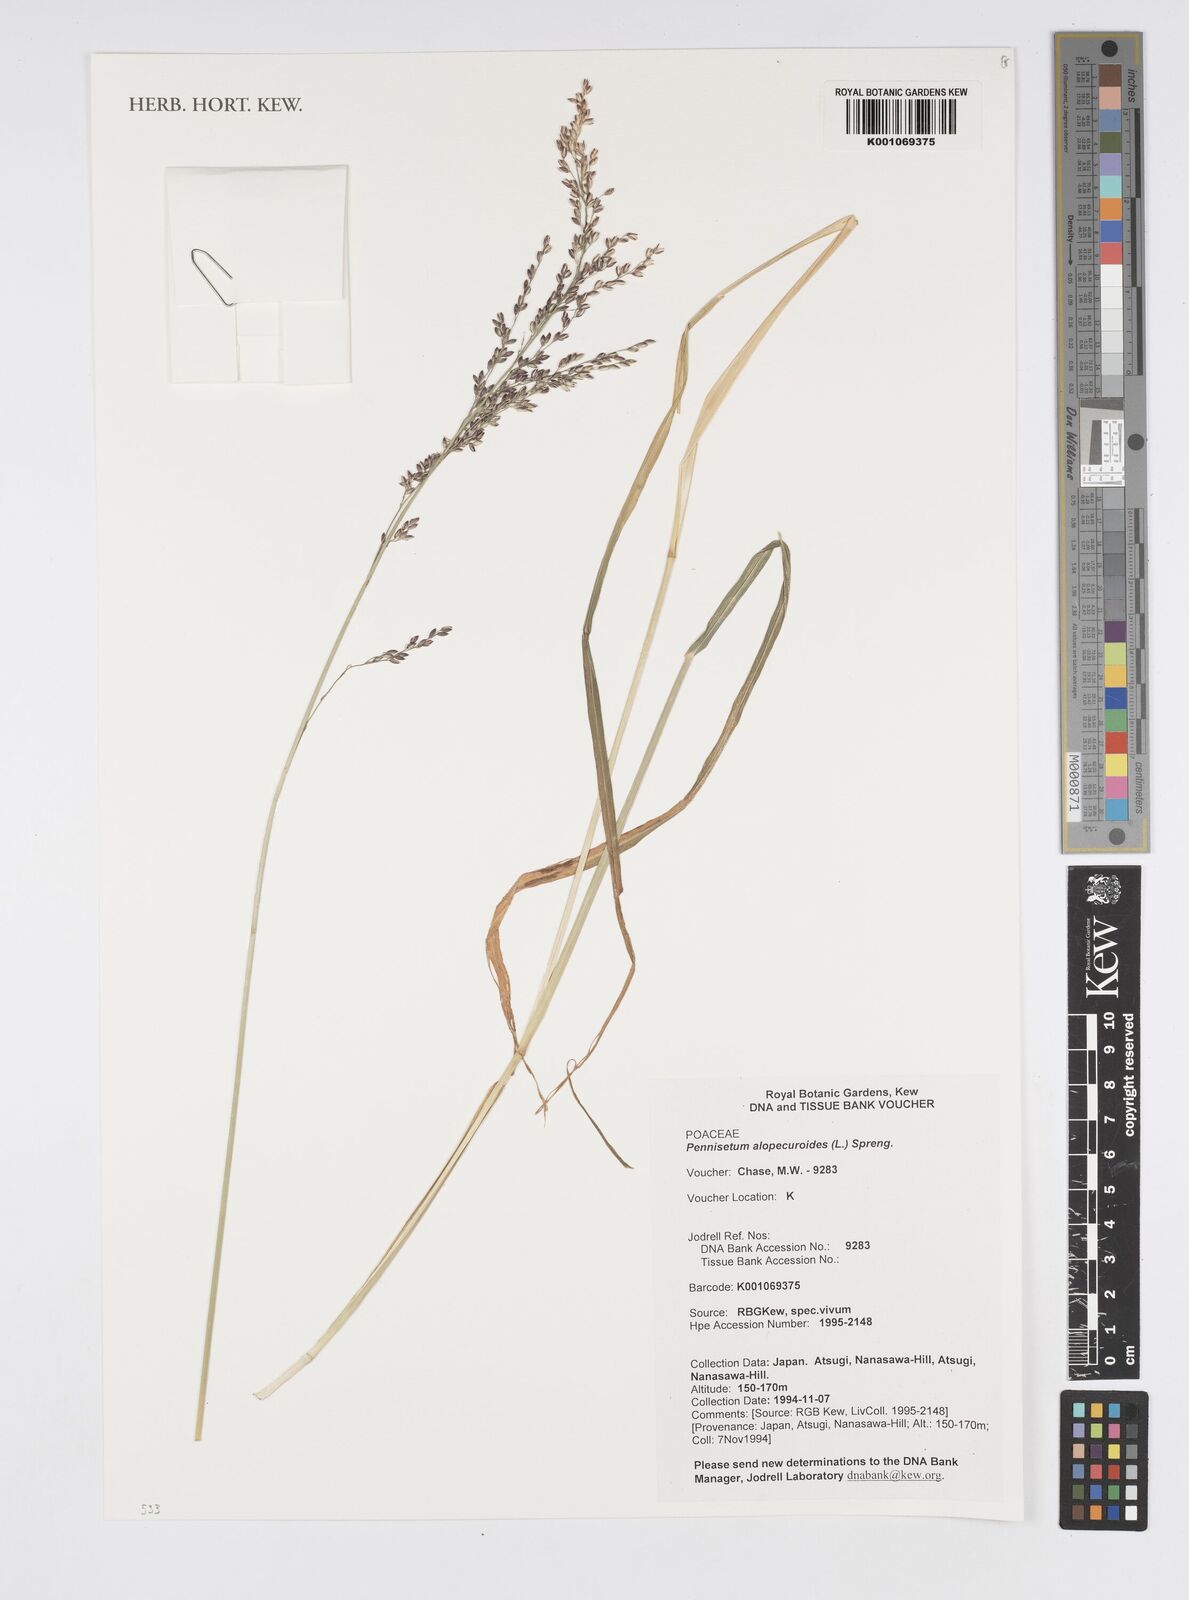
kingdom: Plantae
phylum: Tracheophyta
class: Liliopsida
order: Poales
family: Poaceae
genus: Cenchrus
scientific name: Cenchrus alopecuroides
